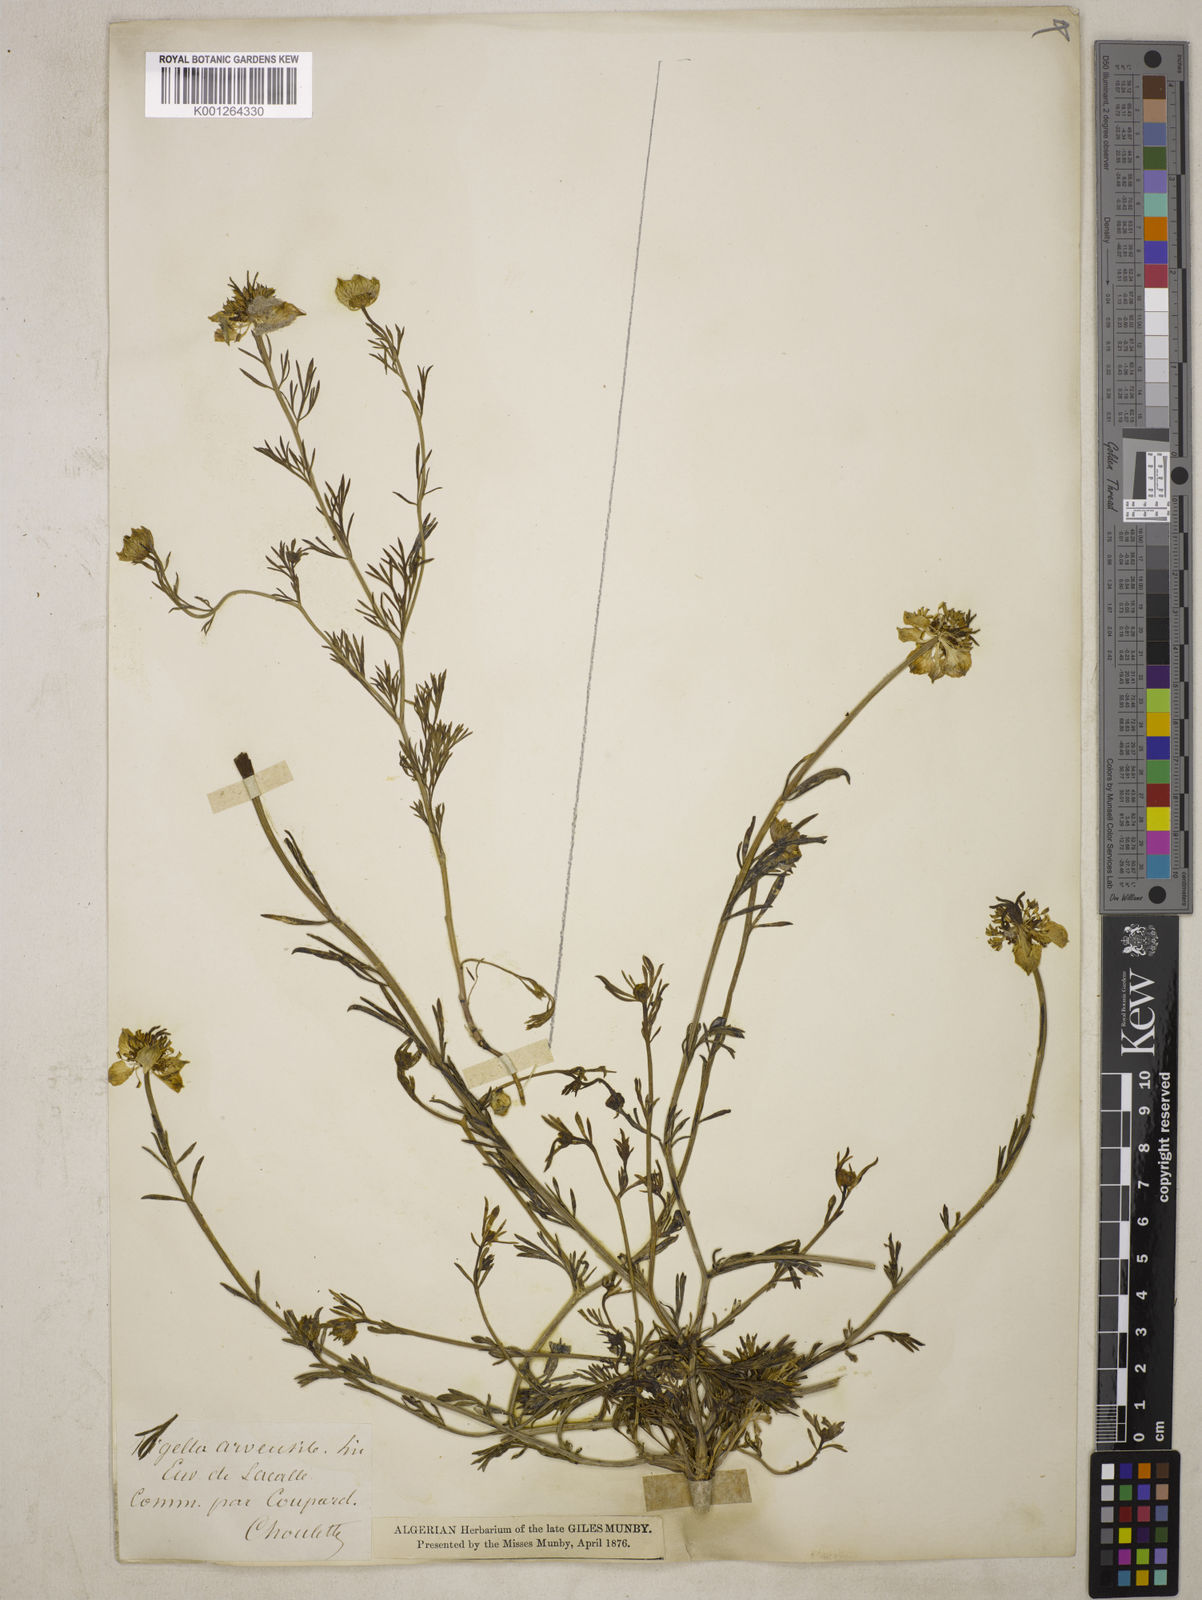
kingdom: Plantae
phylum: Tracheophyta
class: Magnoliopsida
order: Ranunculales
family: Ranunculaceae
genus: Nigella
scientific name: Nigella arvensis
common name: Wild fennel-flower
